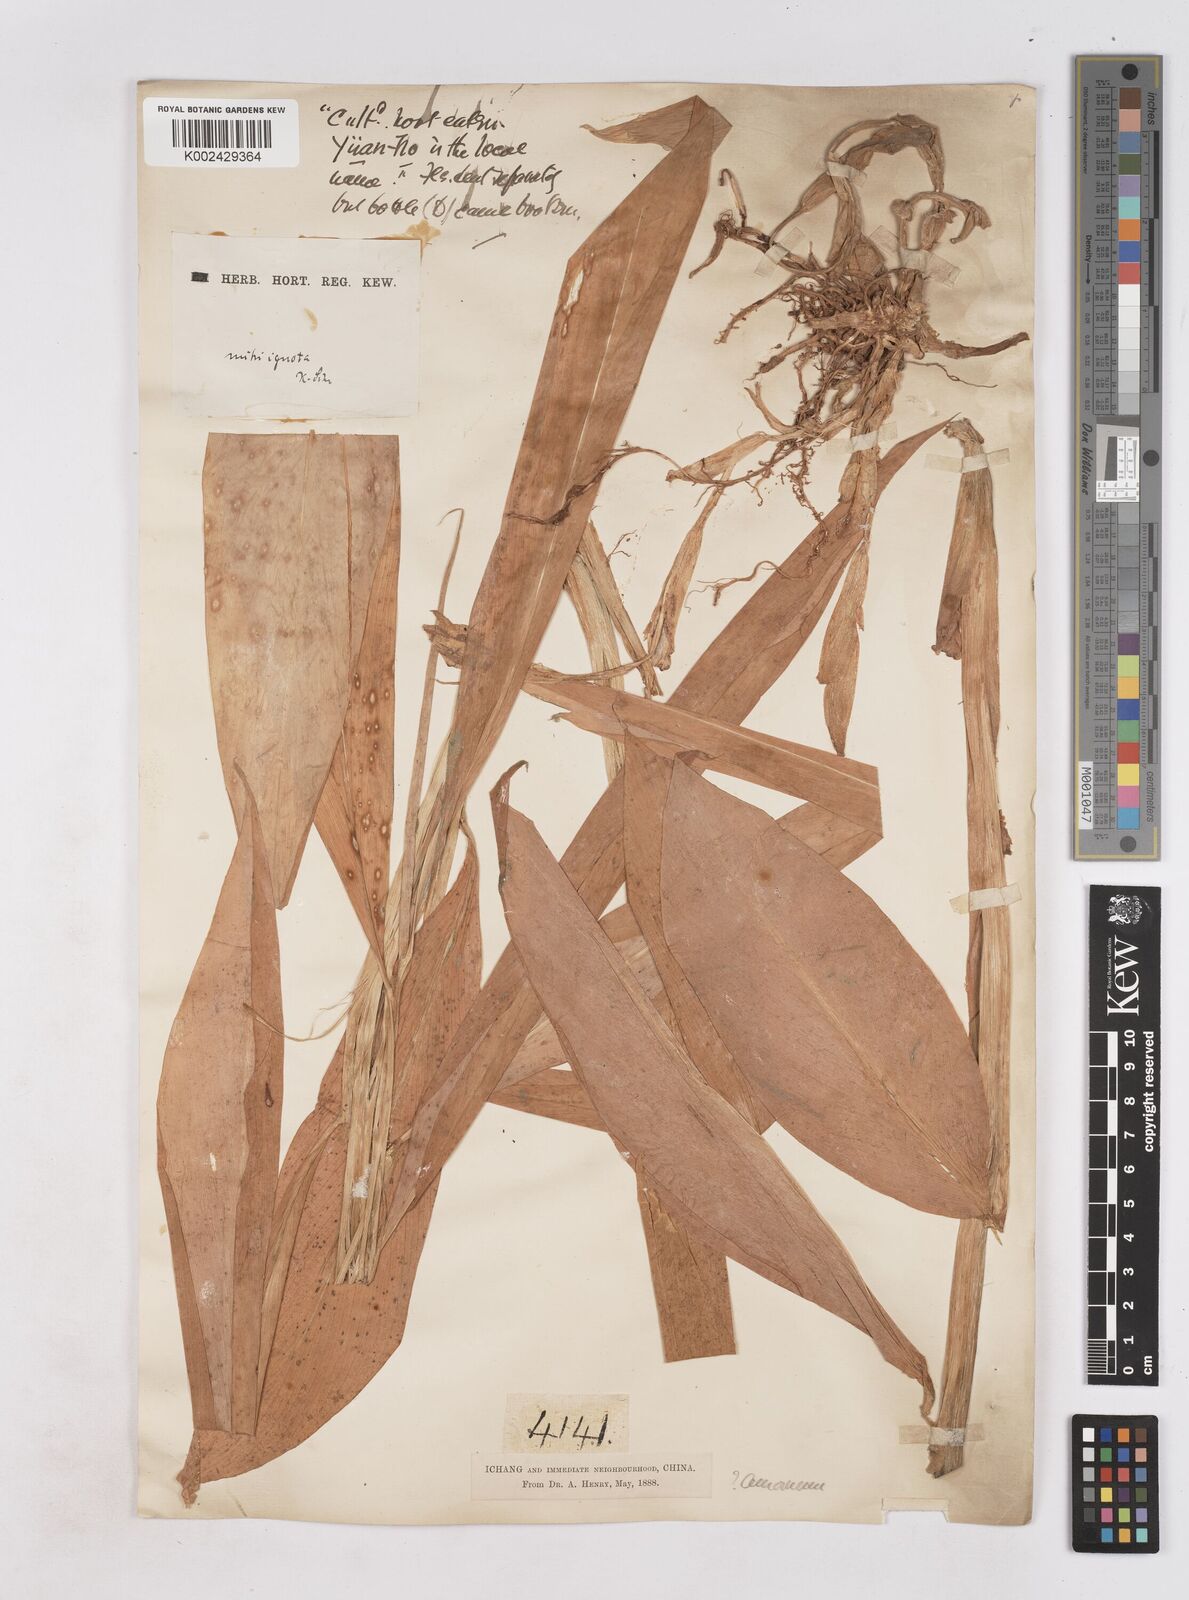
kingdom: Plantae
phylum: Tracheophyta
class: Liliopsida
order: Zingiberales
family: Zingiberaceae
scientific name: Zingiberaceae
